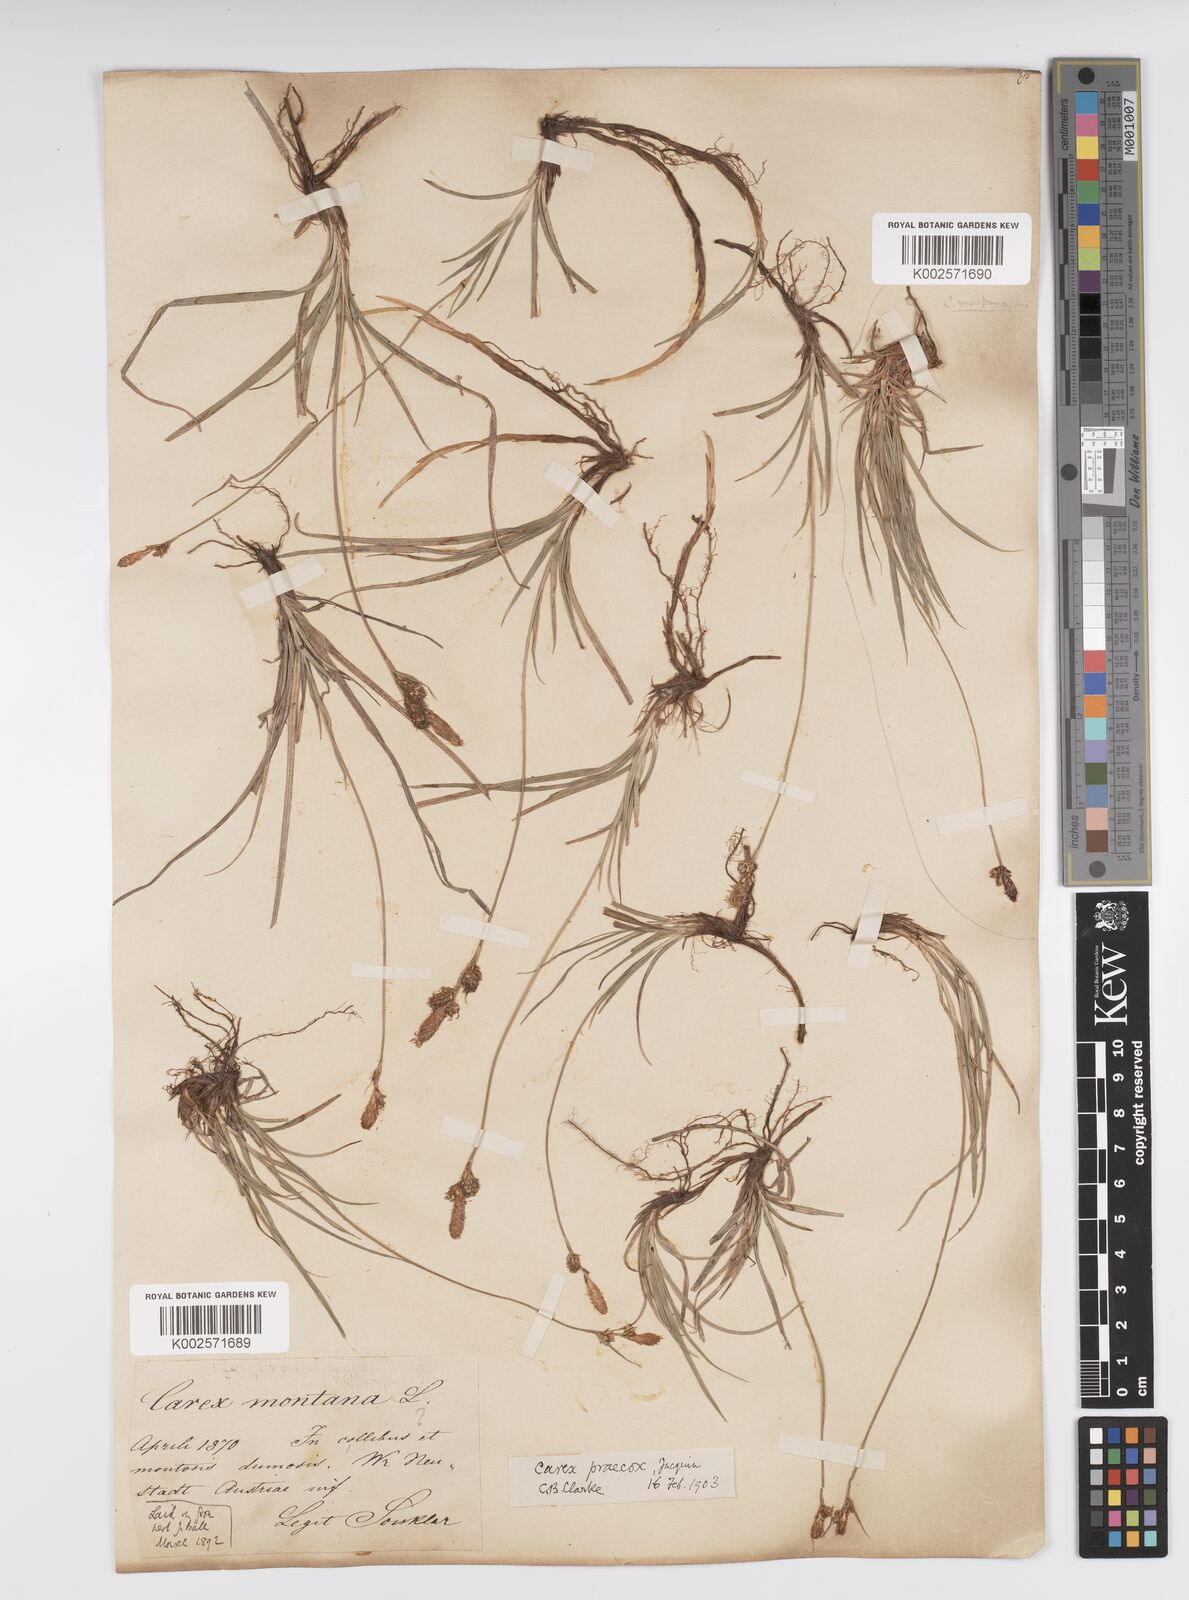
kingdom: Plantae
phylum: Tracheophyta
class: Liliopsida
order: Poales
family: Cyperaceae
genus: Carex
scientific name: Carex caryophyllea
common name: Spring sedge
